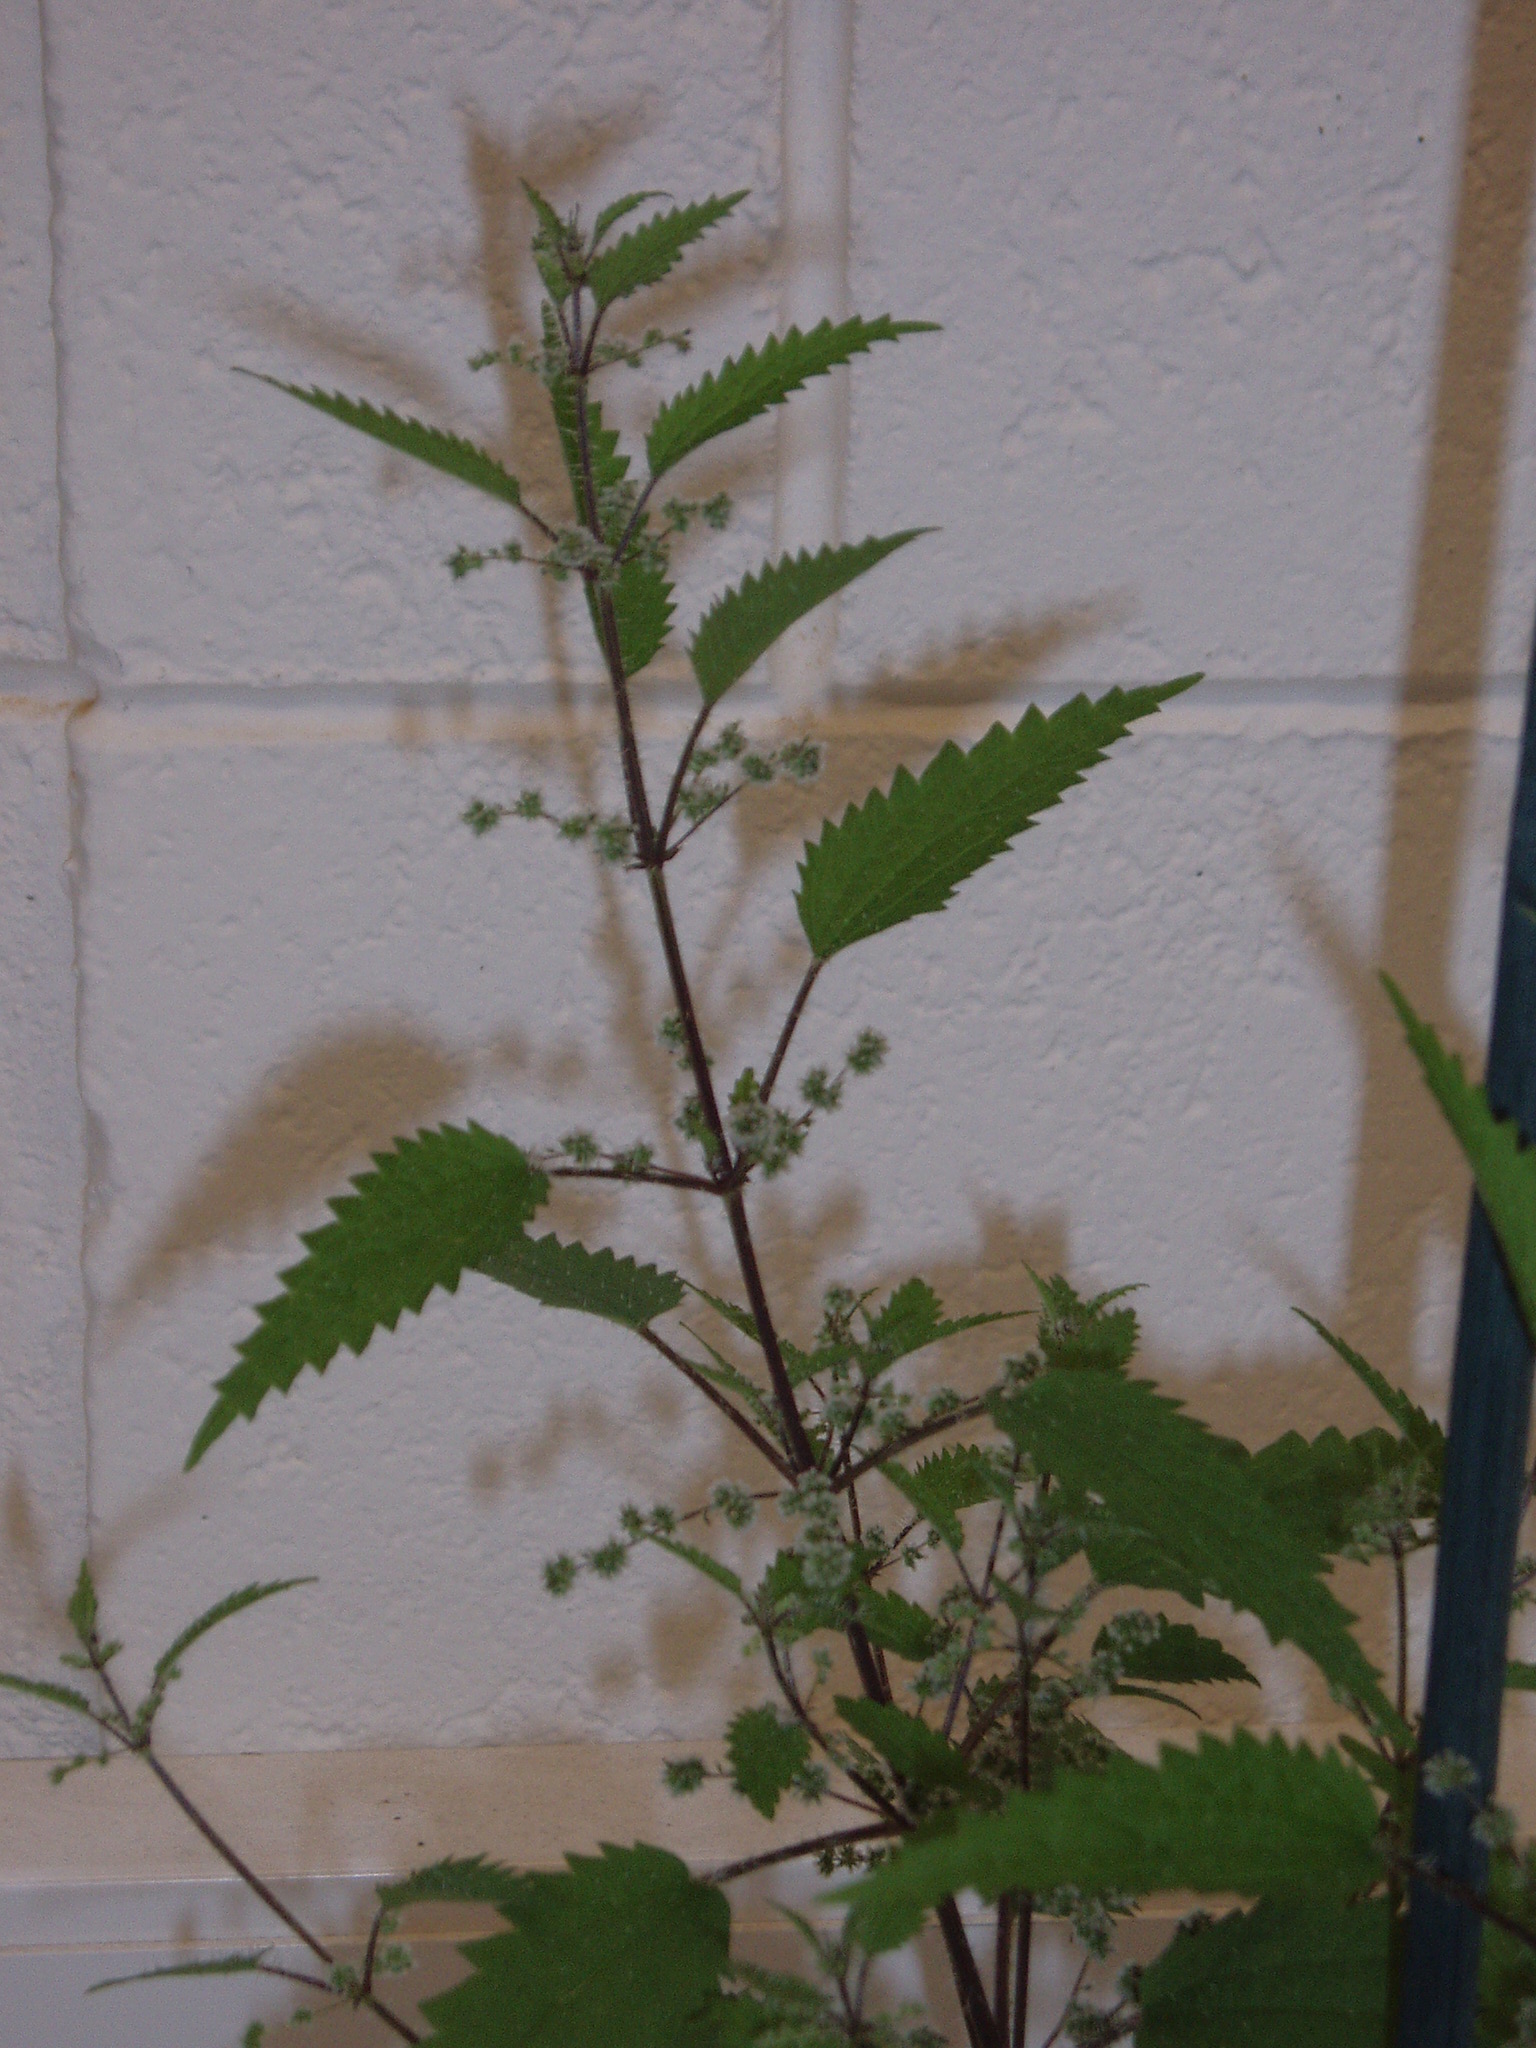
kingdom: Plantae
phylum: Tracheophyta
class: Magnoliopsida
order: Rosales
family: Urticaceae
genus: Urtica
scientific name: Urtica
